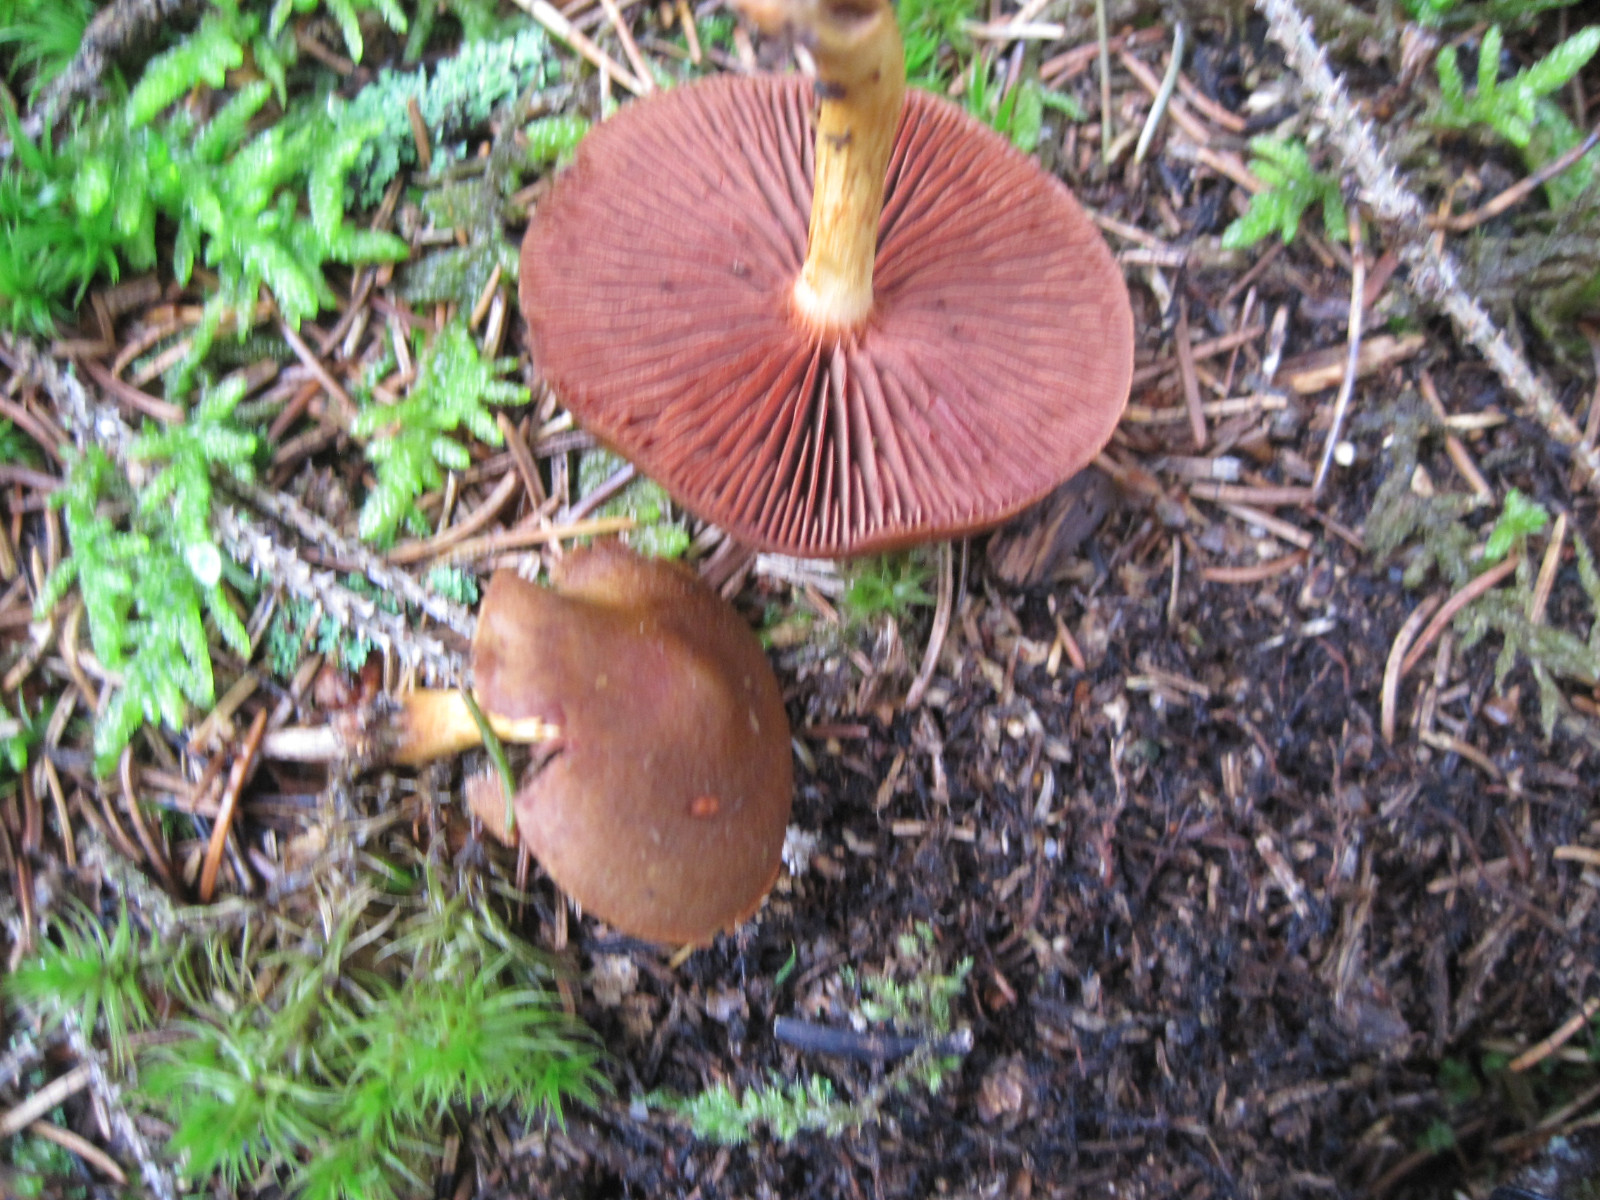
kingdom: Fungi
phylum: Basidiomycota
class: Agaricomycetes
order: Agaricales
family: Cortinariaceae
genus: Cortinarius
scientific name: Cortinarius
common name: cinnoberbladet slørhat
